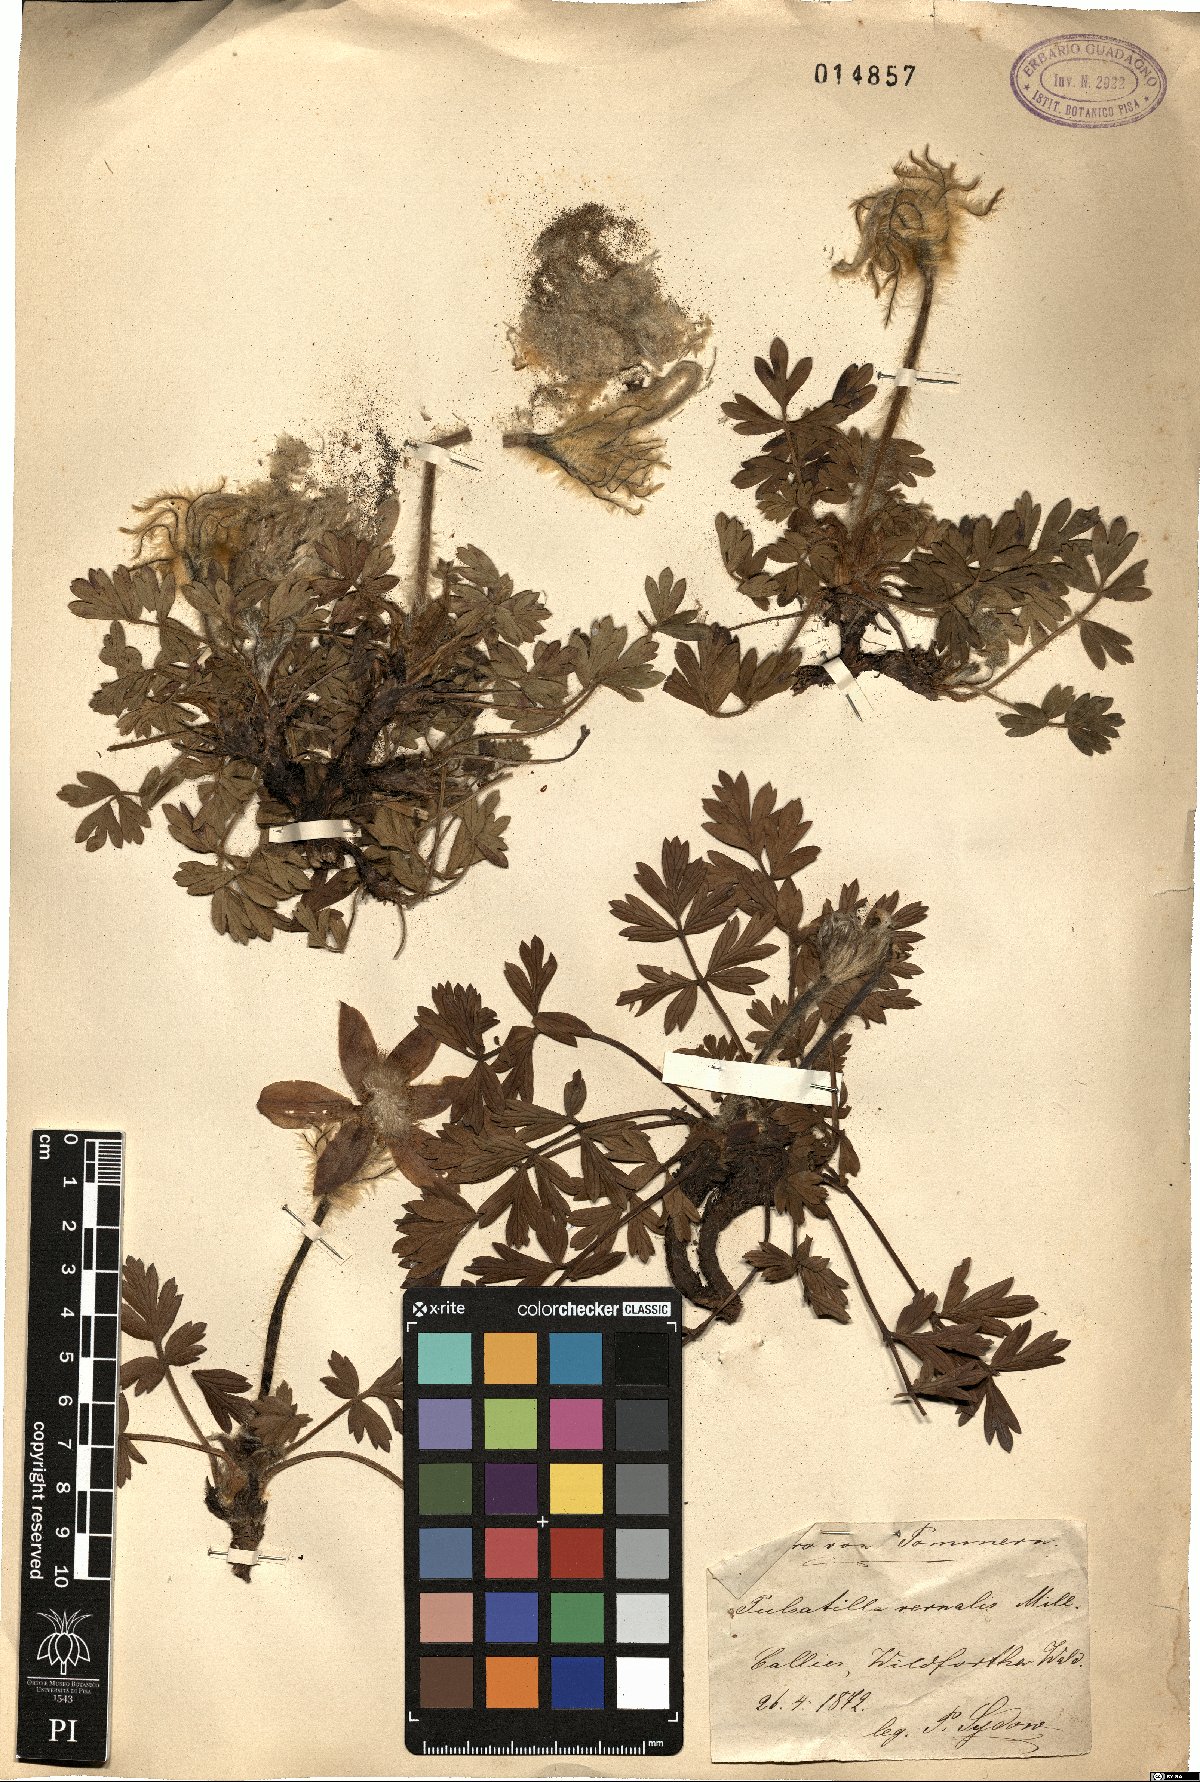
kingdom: Plantae
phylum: Tracheophyta
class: Magnoliopsida
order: Ranunculales
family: Ranunculaceae
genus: Pulsatilla
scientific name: Pulsatilla vernalis
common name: Spring pasque flower
